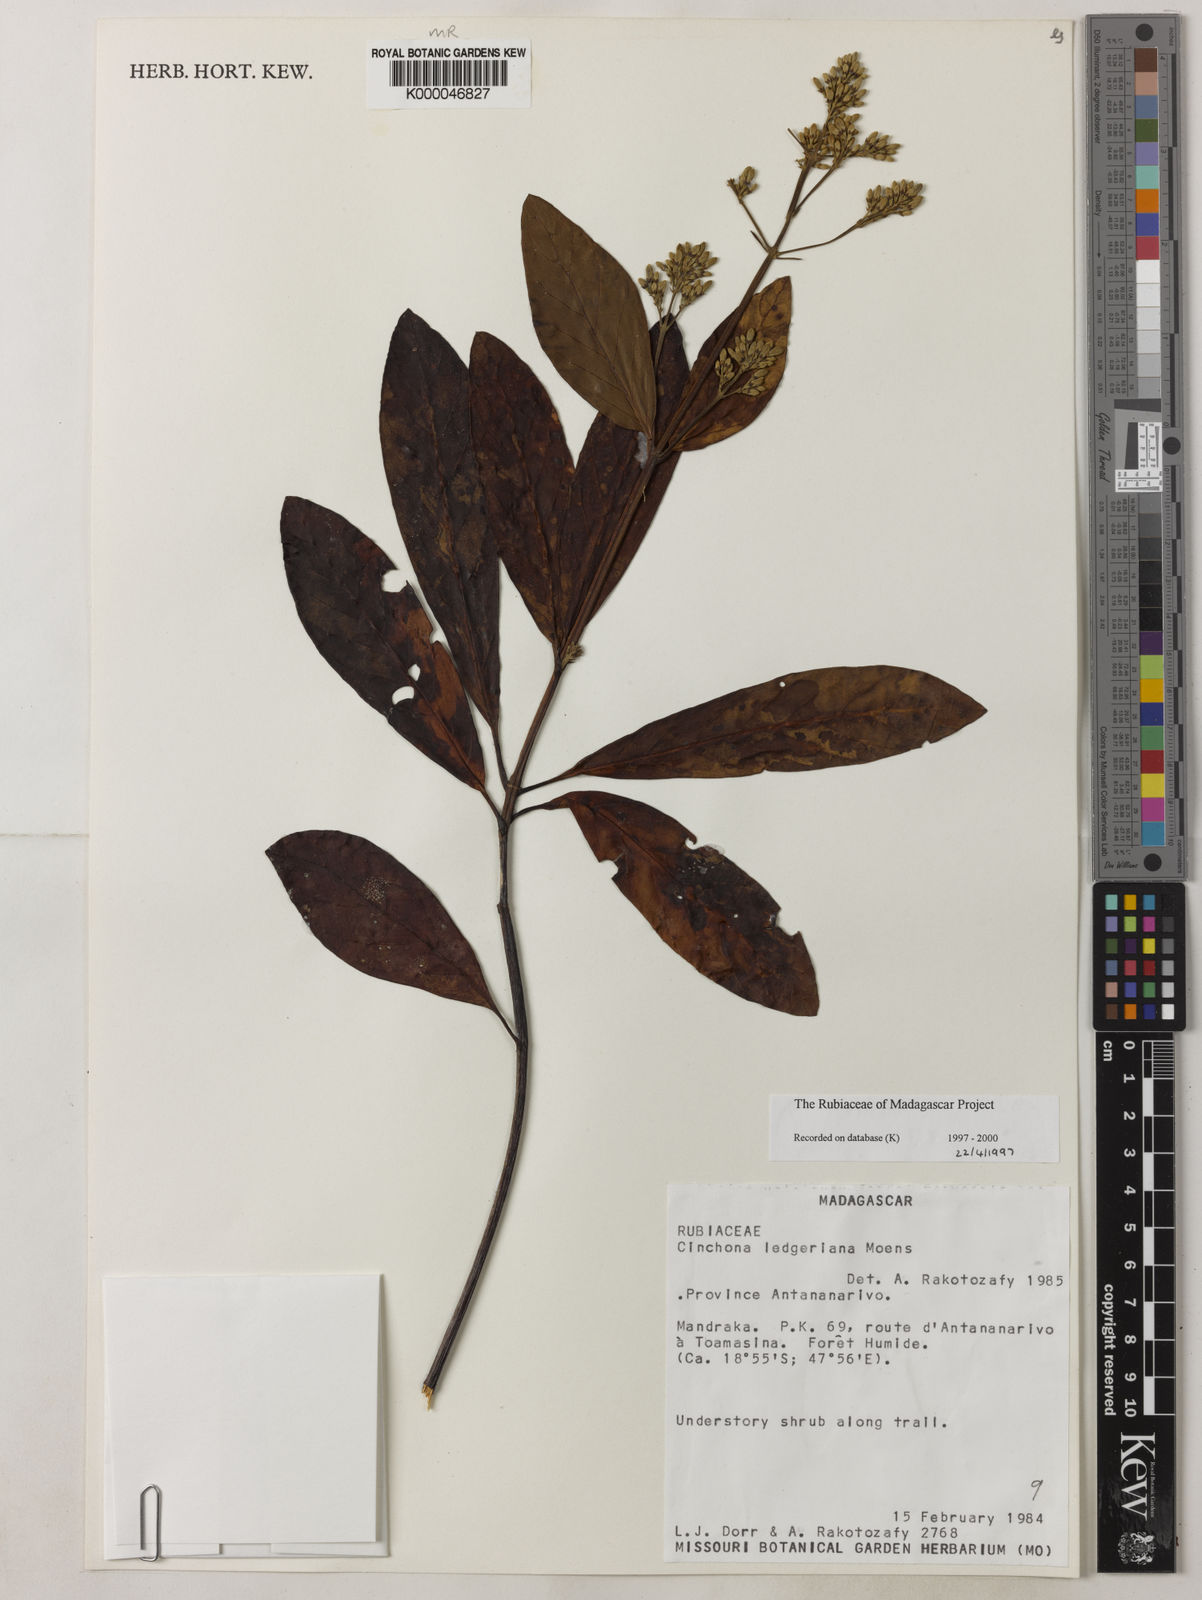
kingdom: Plantae
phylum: Tracheophyta
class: Magnoliopsida
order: Gentianales
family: Rubiaceae
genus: Cinchona
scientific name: Cinchona calisaya
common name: Ledgerbark
